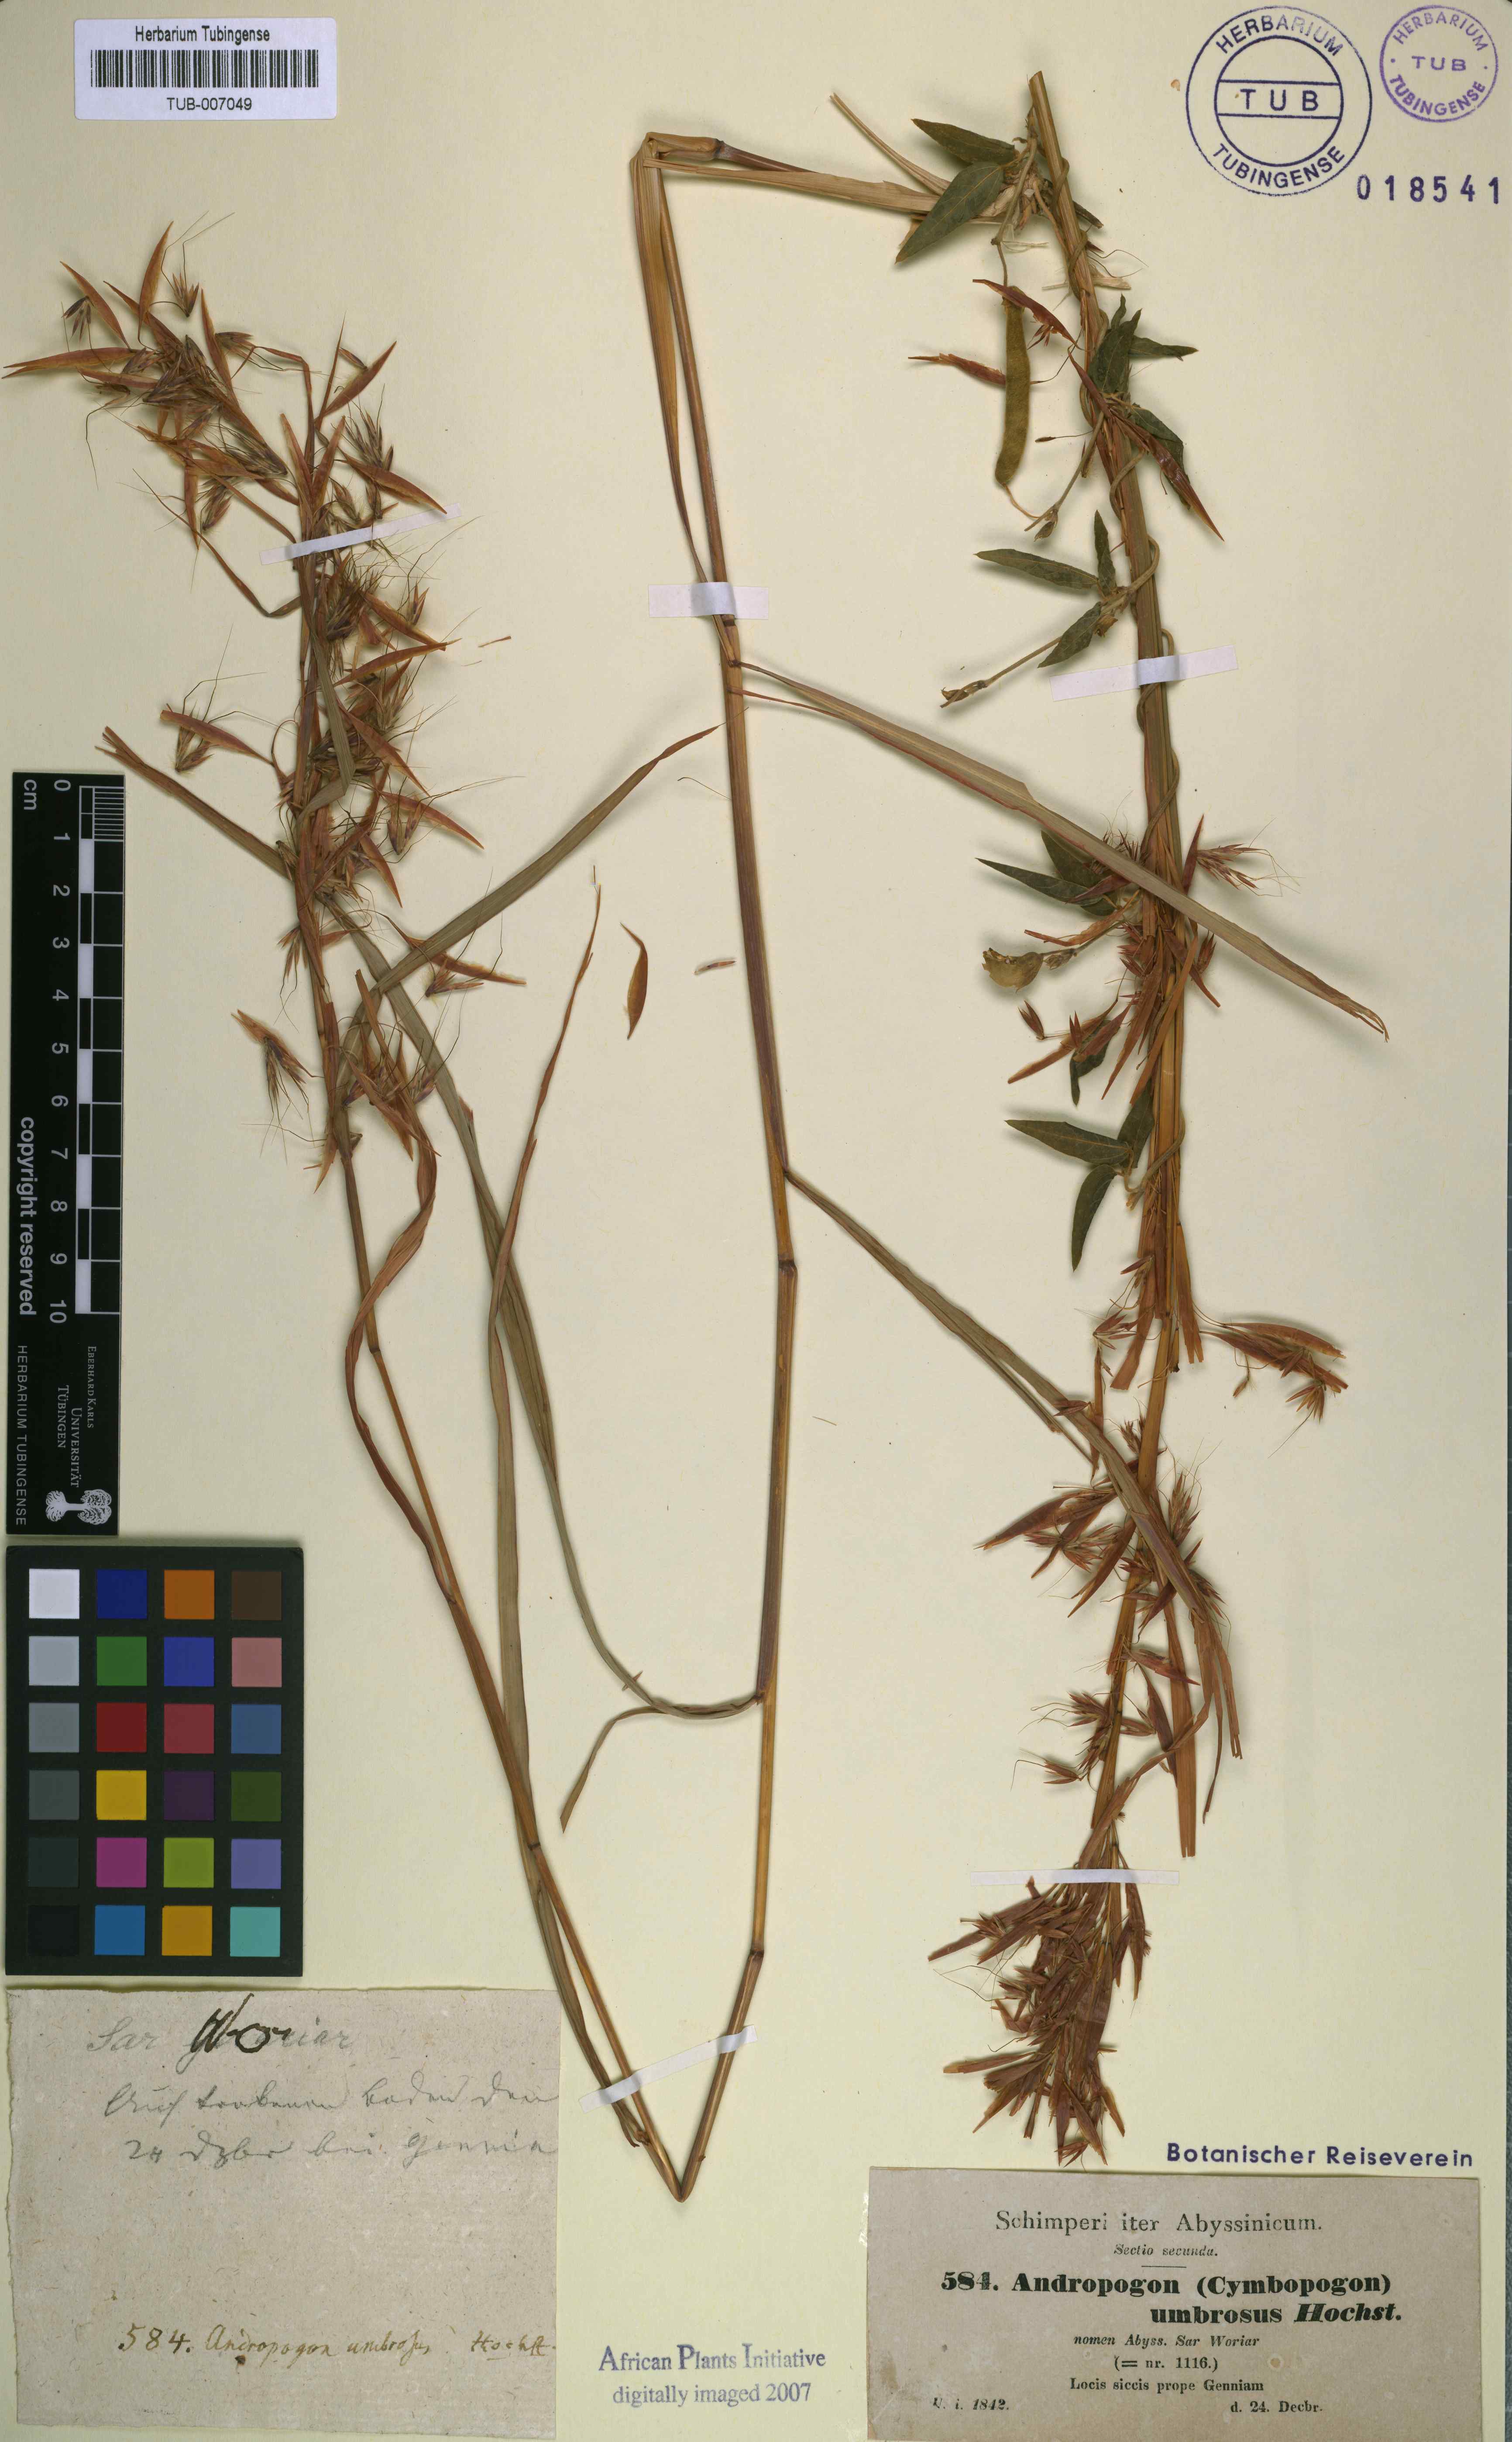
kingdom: Plantae
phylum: Tracheophyta
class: Liliopsida
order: Poales
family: Poaceae
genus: Hyparrhenia
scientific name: Hyparrhenia cymbaria
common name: Boat thatching grass
